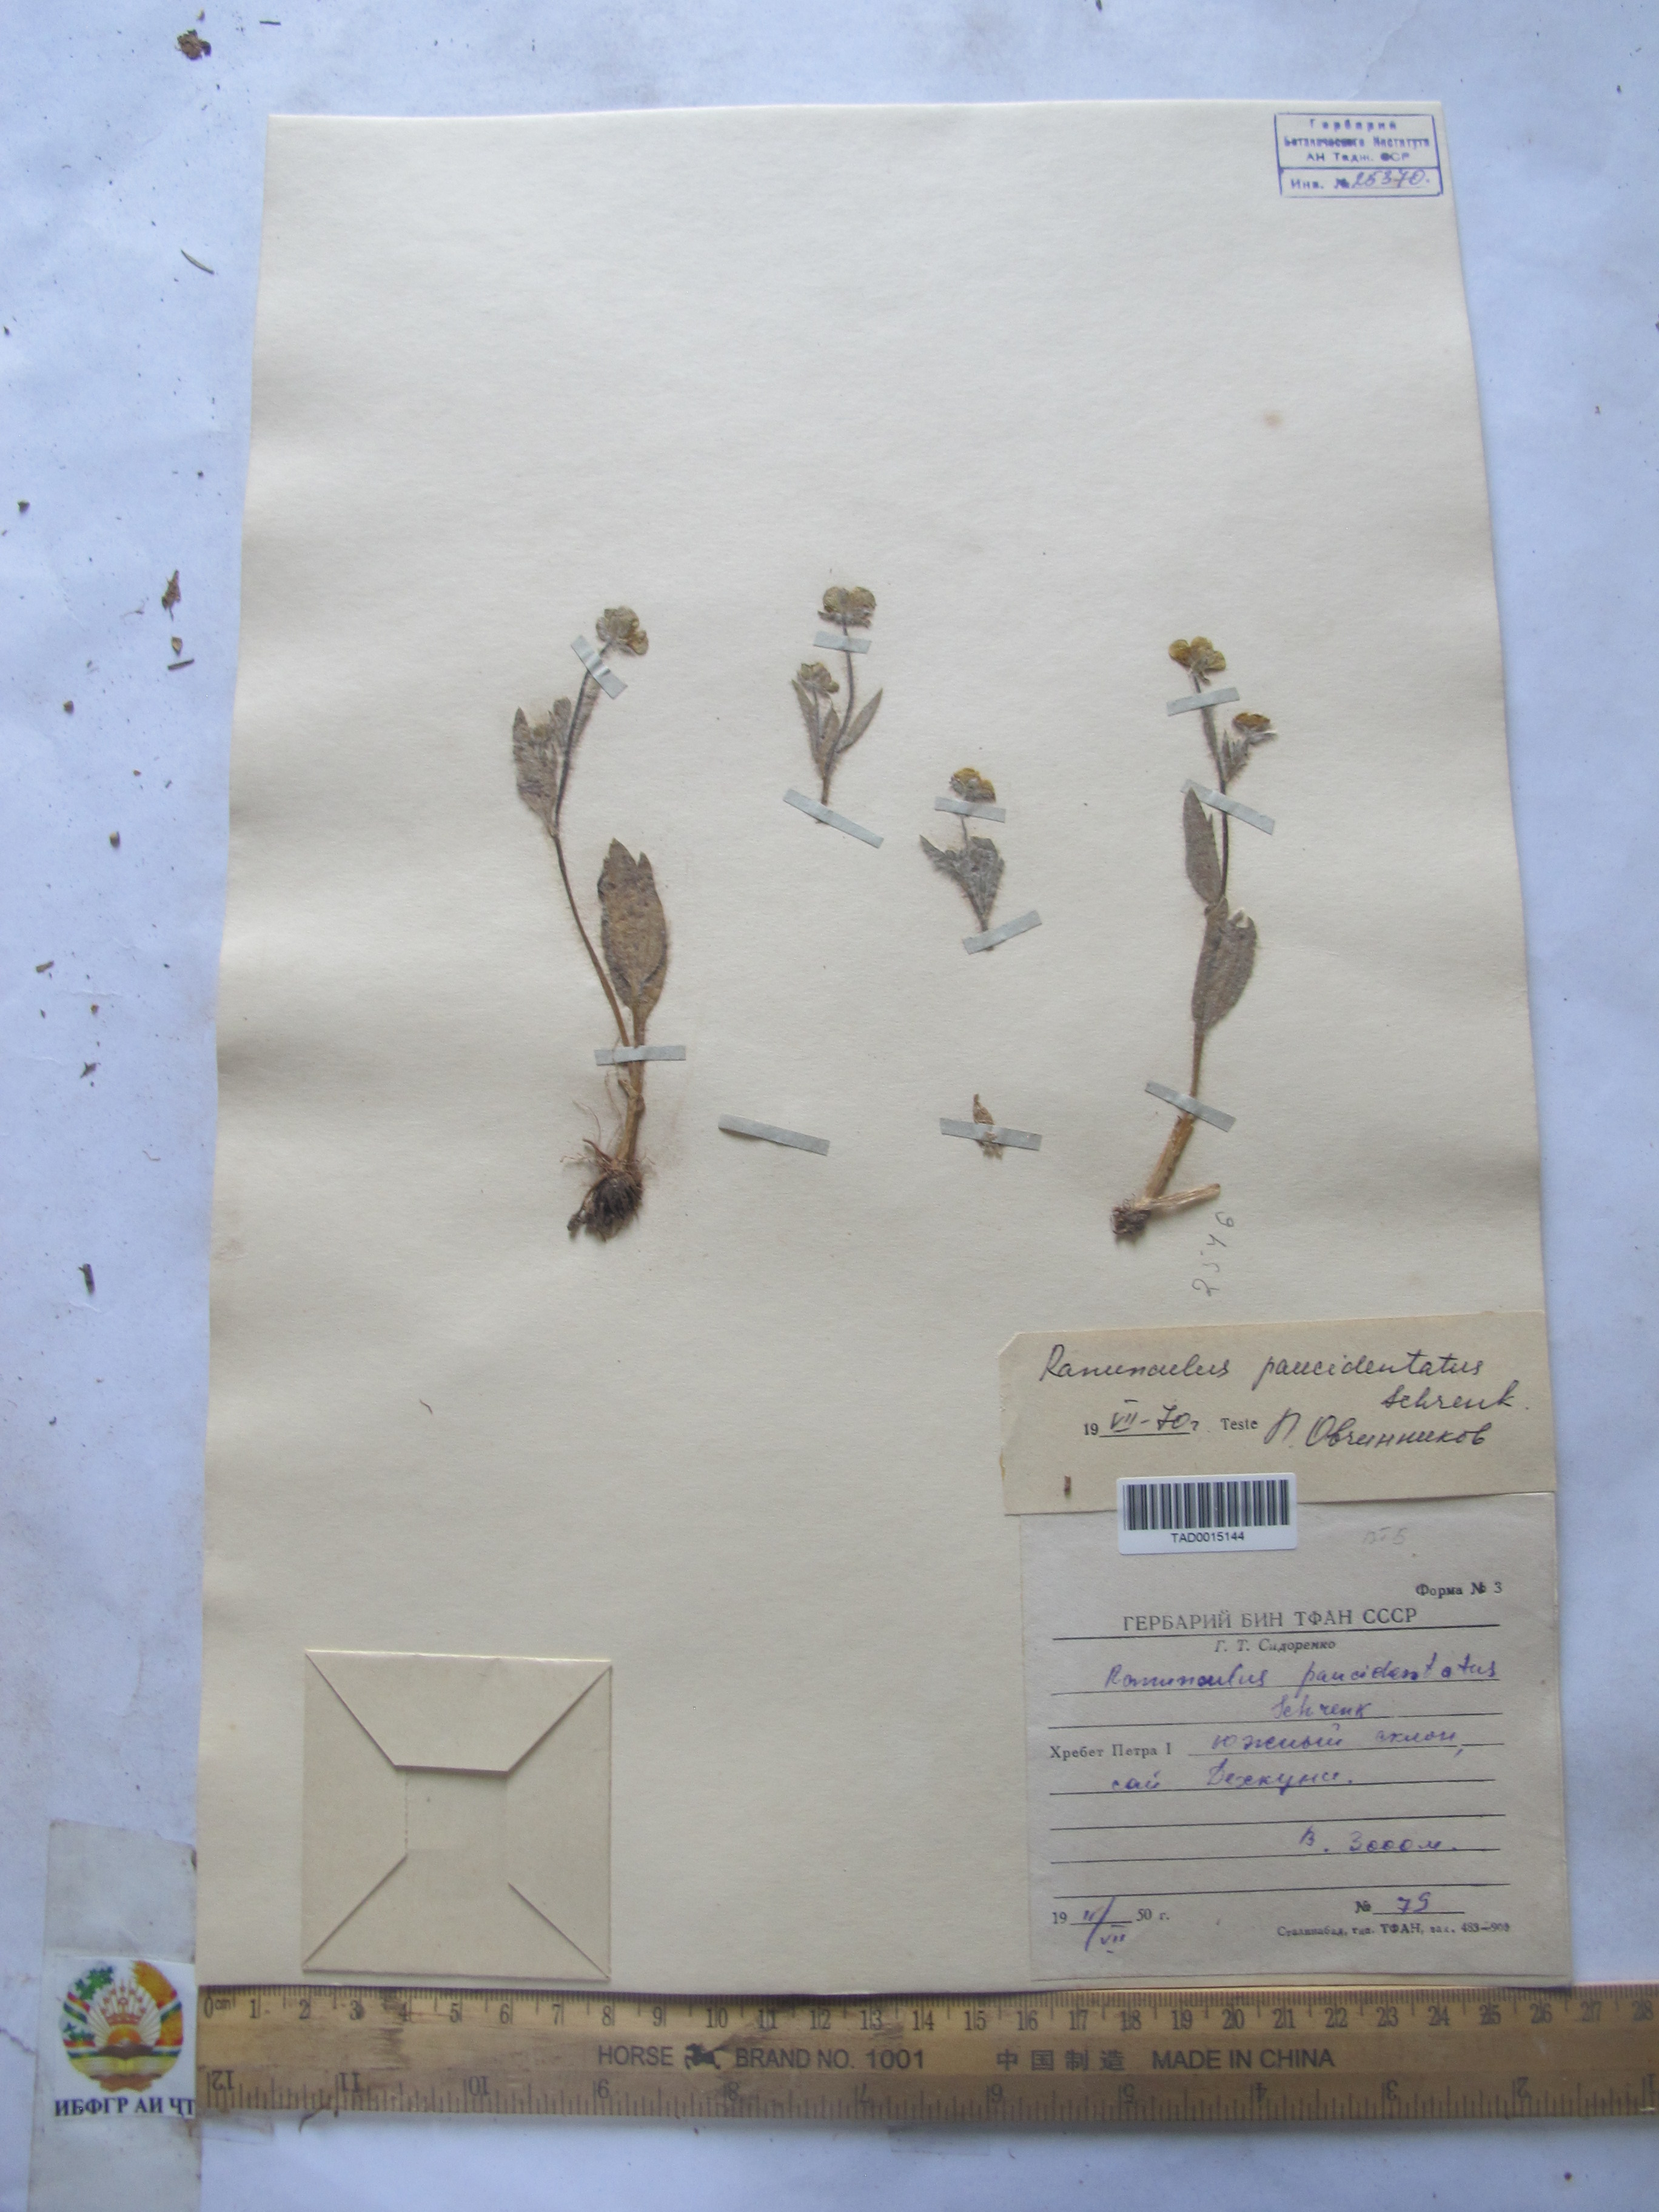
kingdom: Plantae
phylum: Tracheophyta
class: Magnoliopsida
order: Ranunculales
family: Ranunculaceae
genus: Ranunculus
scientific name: Ranunculus paucidentatus
